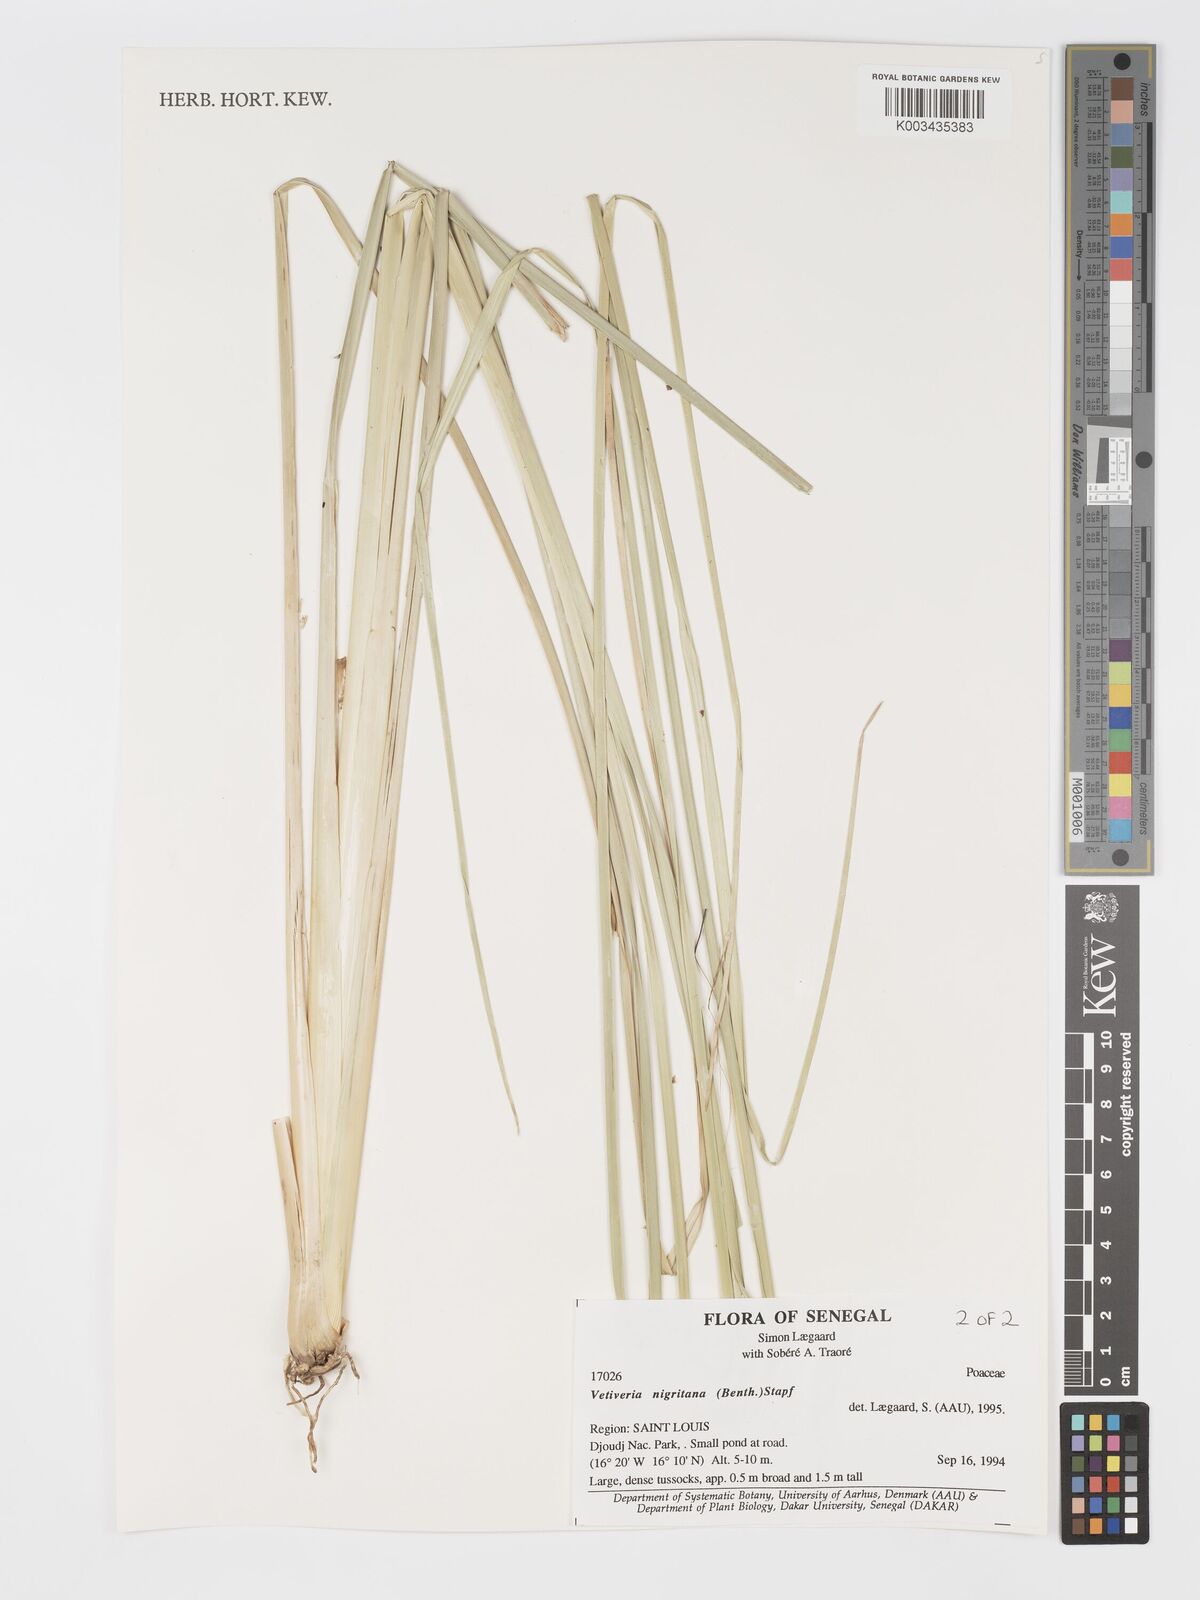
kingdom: Plantae
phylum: Tracheophyta
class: Liliopsida
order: Poales
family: Poaceae
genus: Chrysopogon
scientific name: Chrysopogon nigritanus
